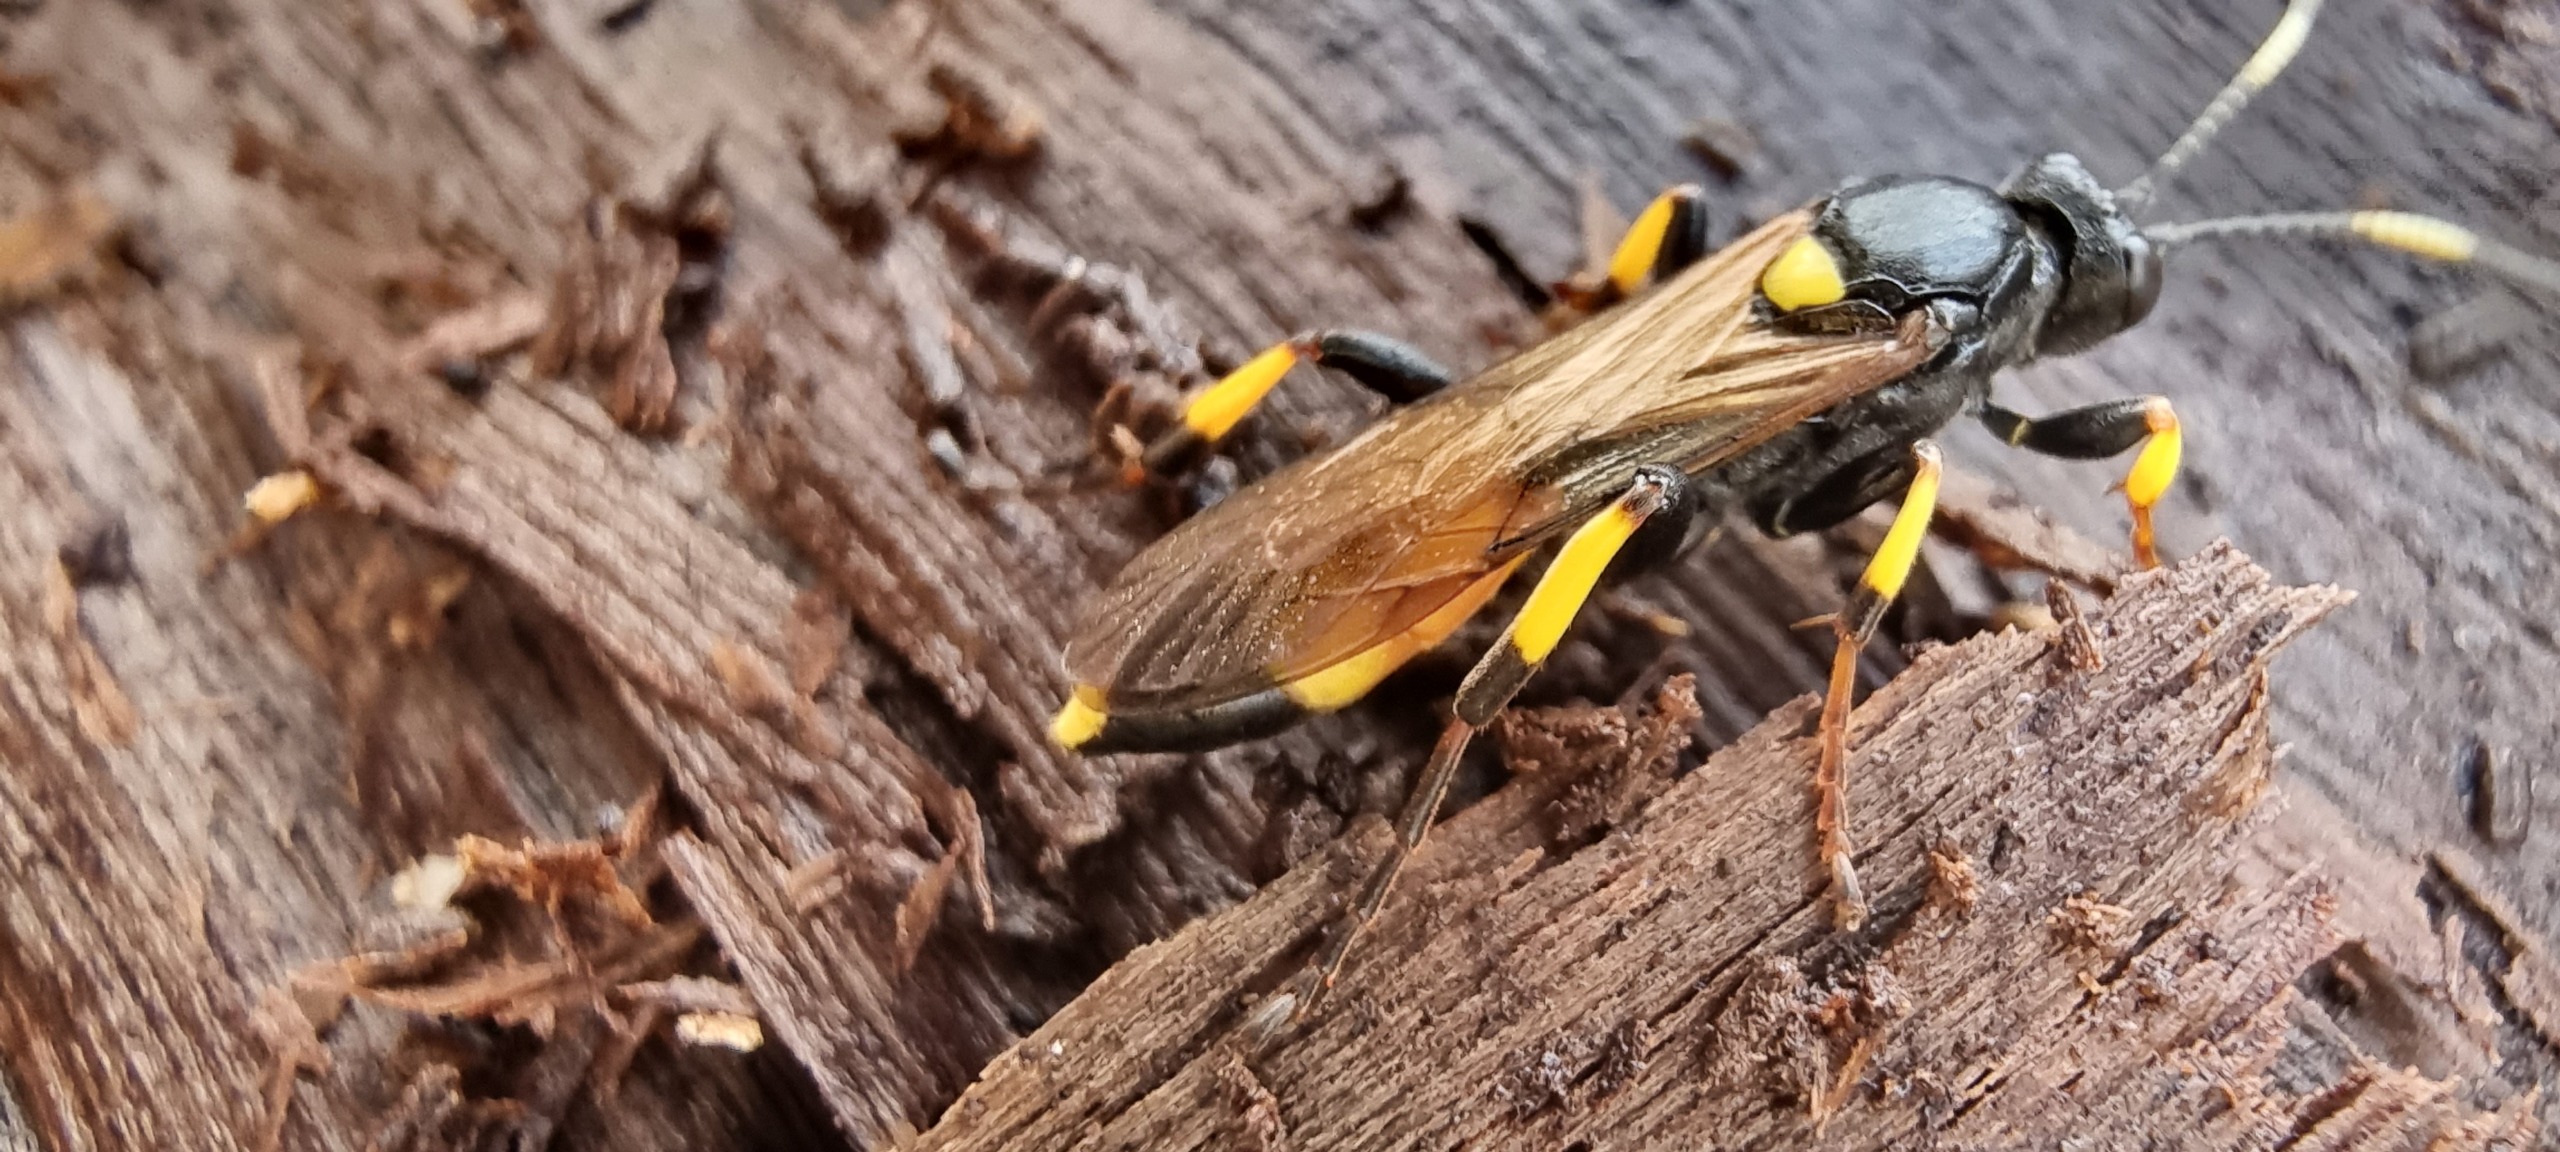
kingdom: Animalia
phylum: Arthropoda
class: Insecta
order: Hymenoptera
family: Ichneumonidae
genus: Ichneumon
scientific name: Ichneumon stramentor
